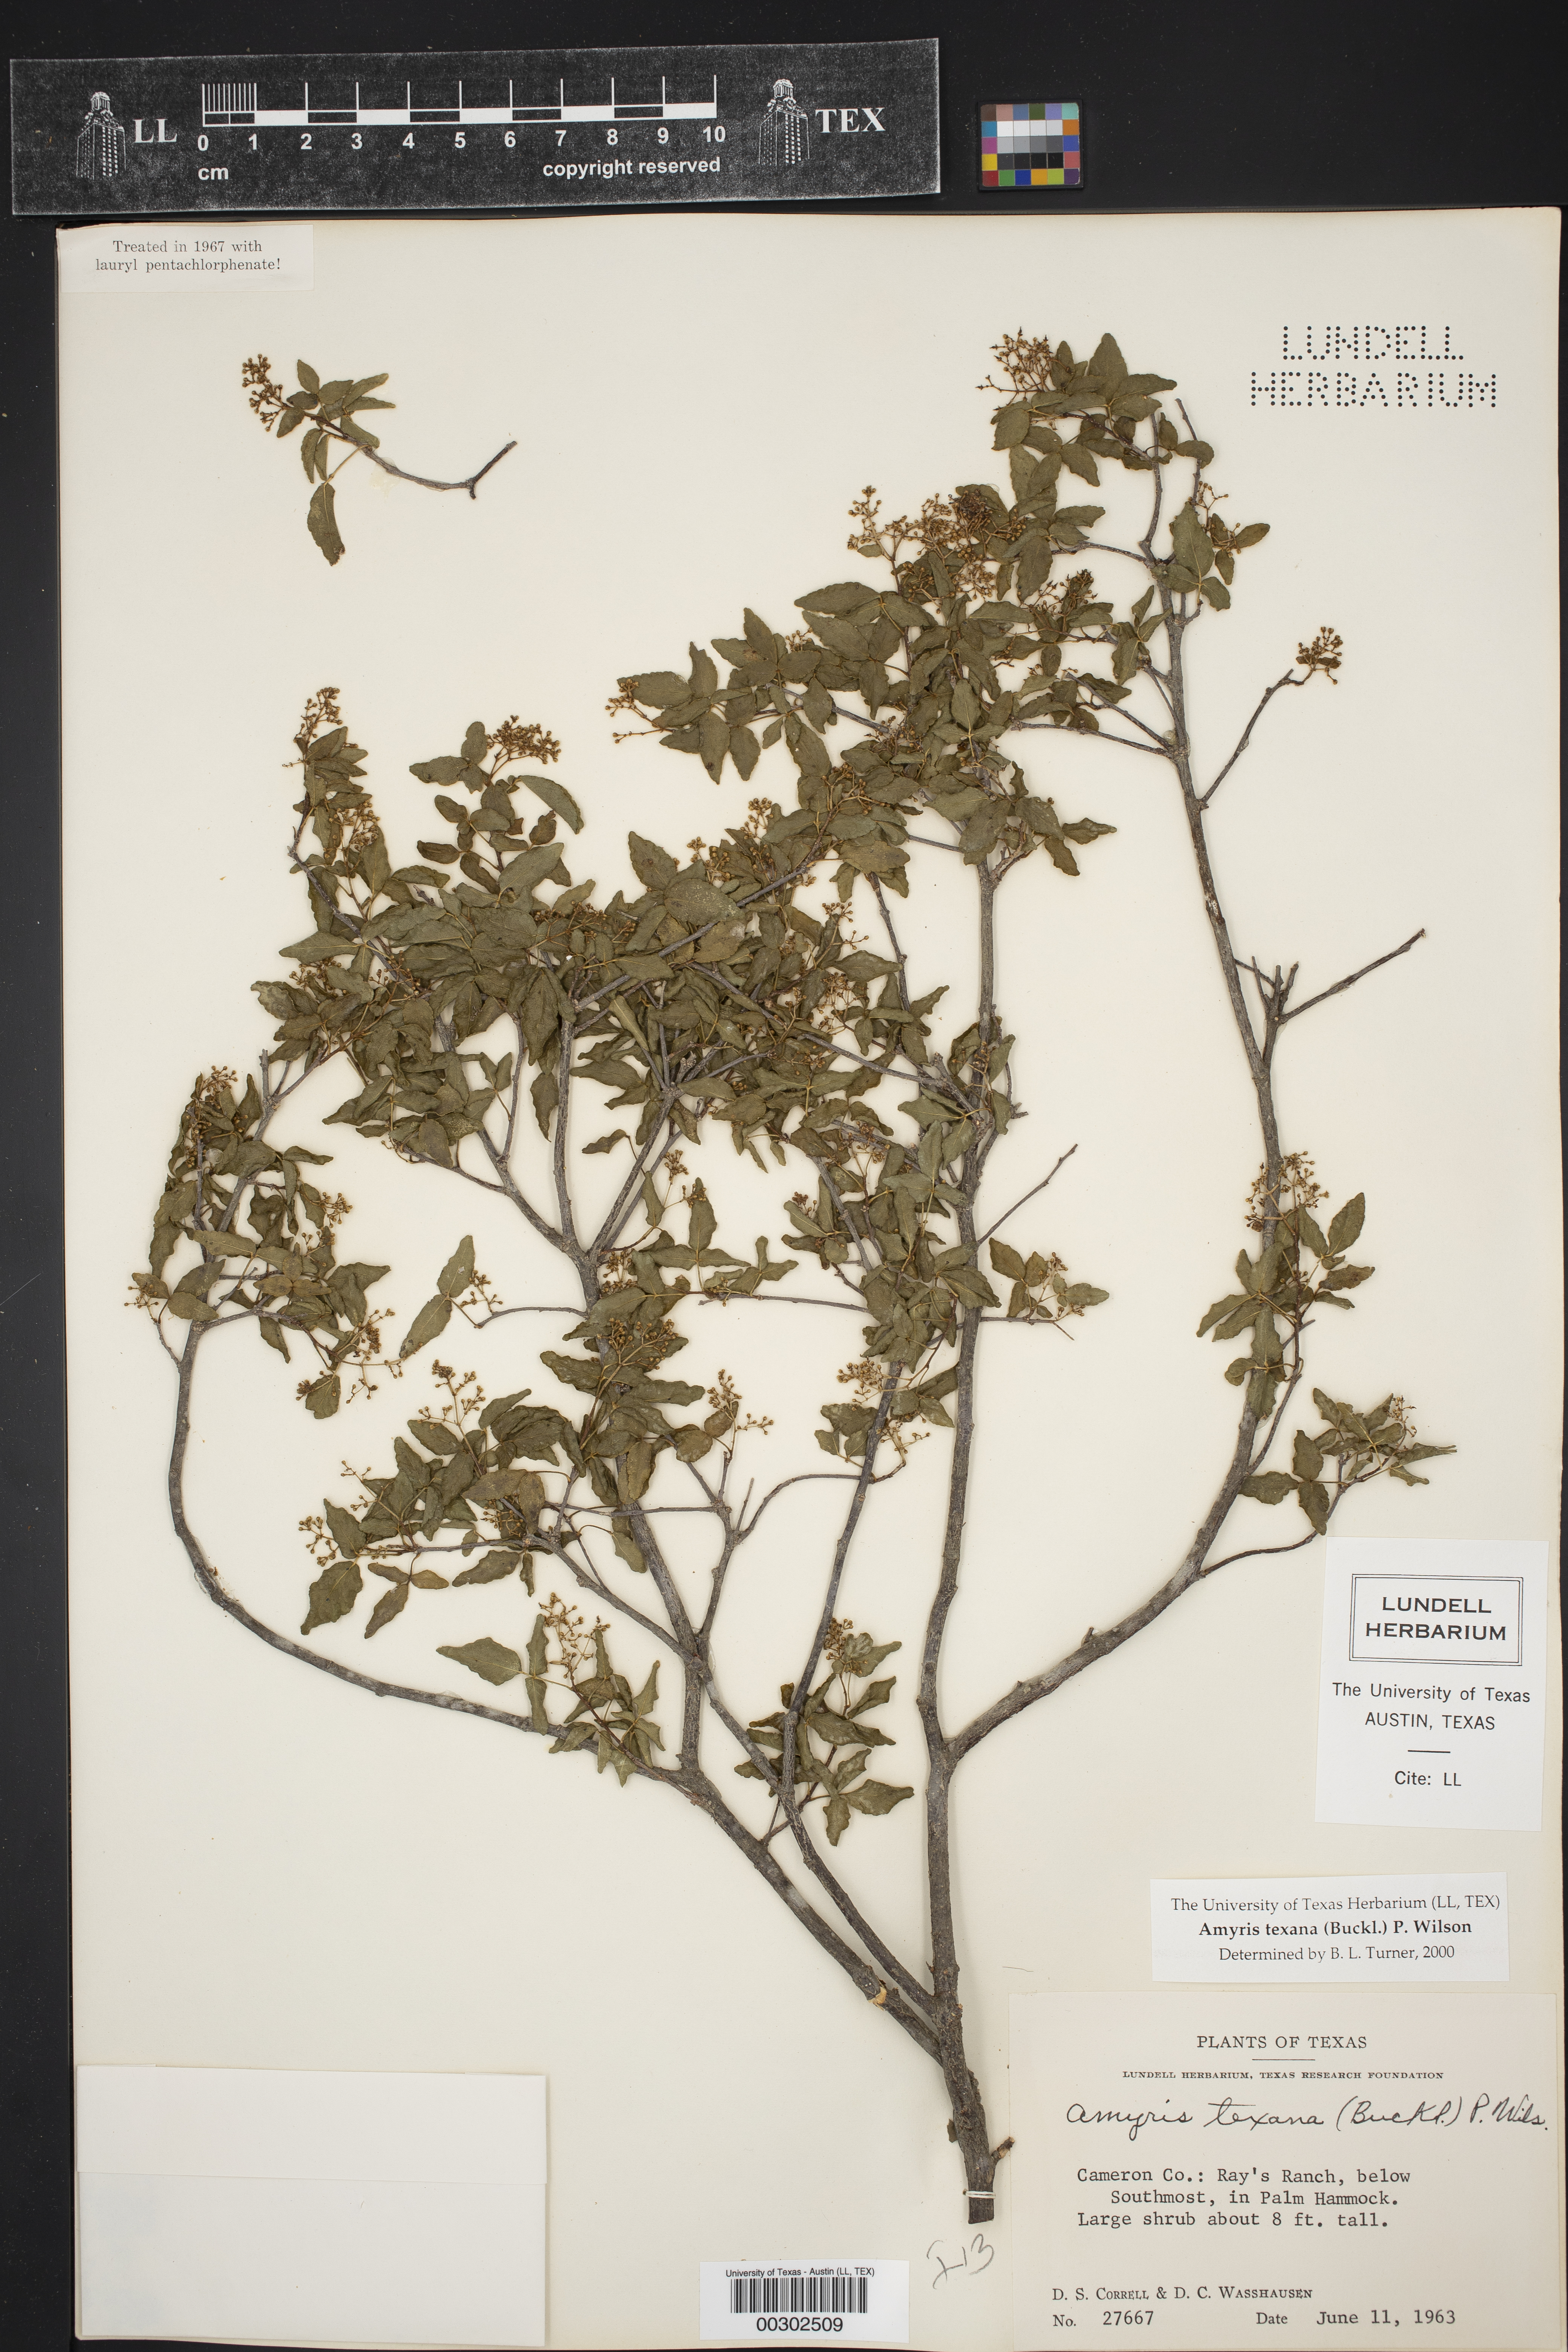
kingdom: Plantae
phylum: Tracheophyta
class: Magnoliopsida
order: Sapindales
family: Rutaceae
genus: Amyris
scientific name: Amyris texana
